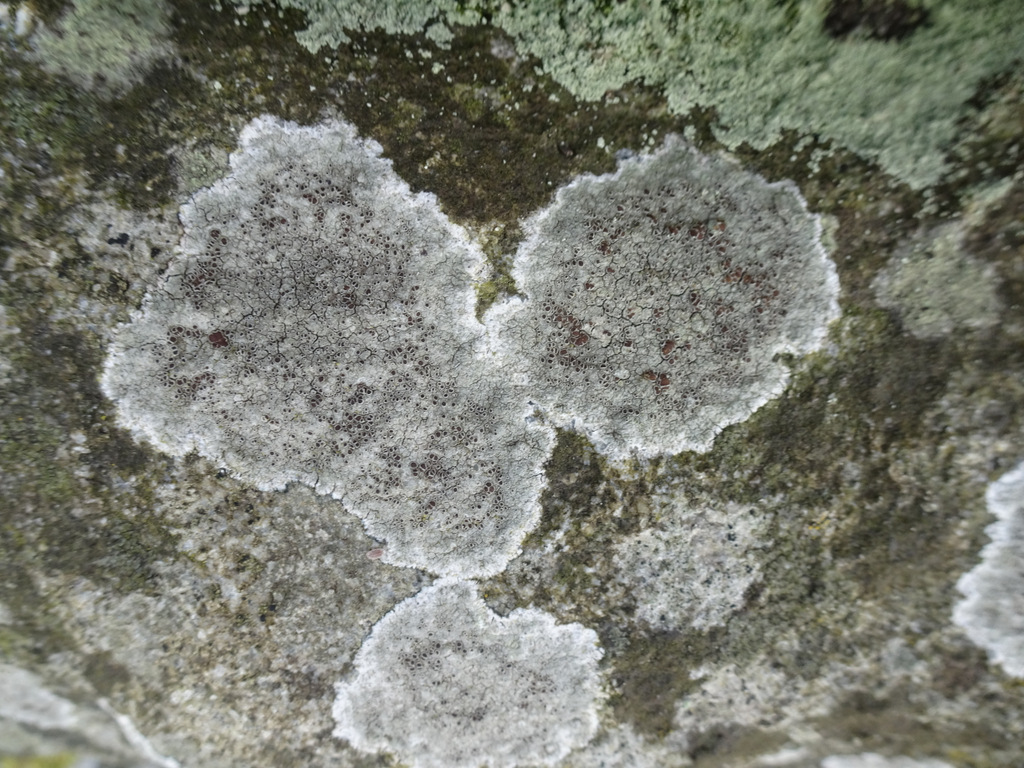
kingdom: Fungi
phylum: Ascomycota
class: Lecanoromycetes
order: Lecanorales
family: Lecanoraceae
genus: Lecanora
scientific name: Lecanora campestris
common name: mur-kantskivelav
